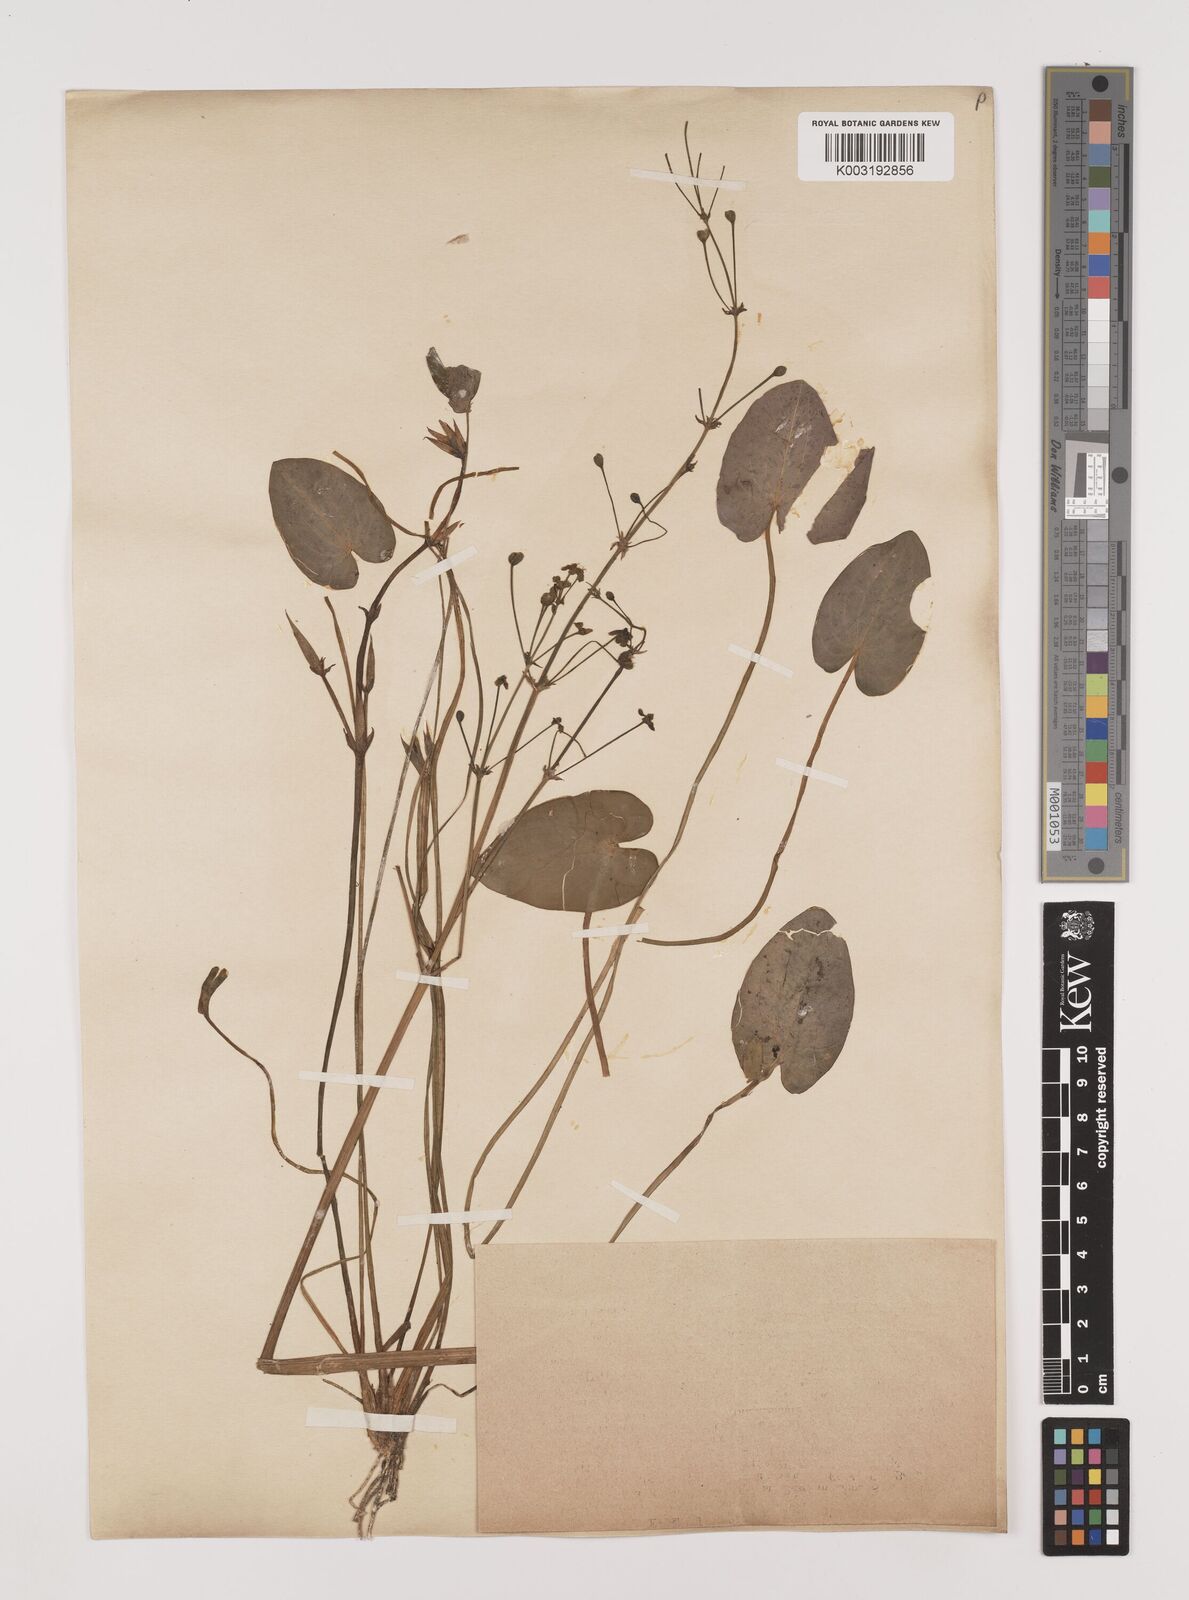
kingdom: Plantae
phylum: Tracheophyta
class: Liliopsida
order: Alismatales
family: Alismataceae
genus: Caldesia
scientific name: Caldesia parnassifolia
